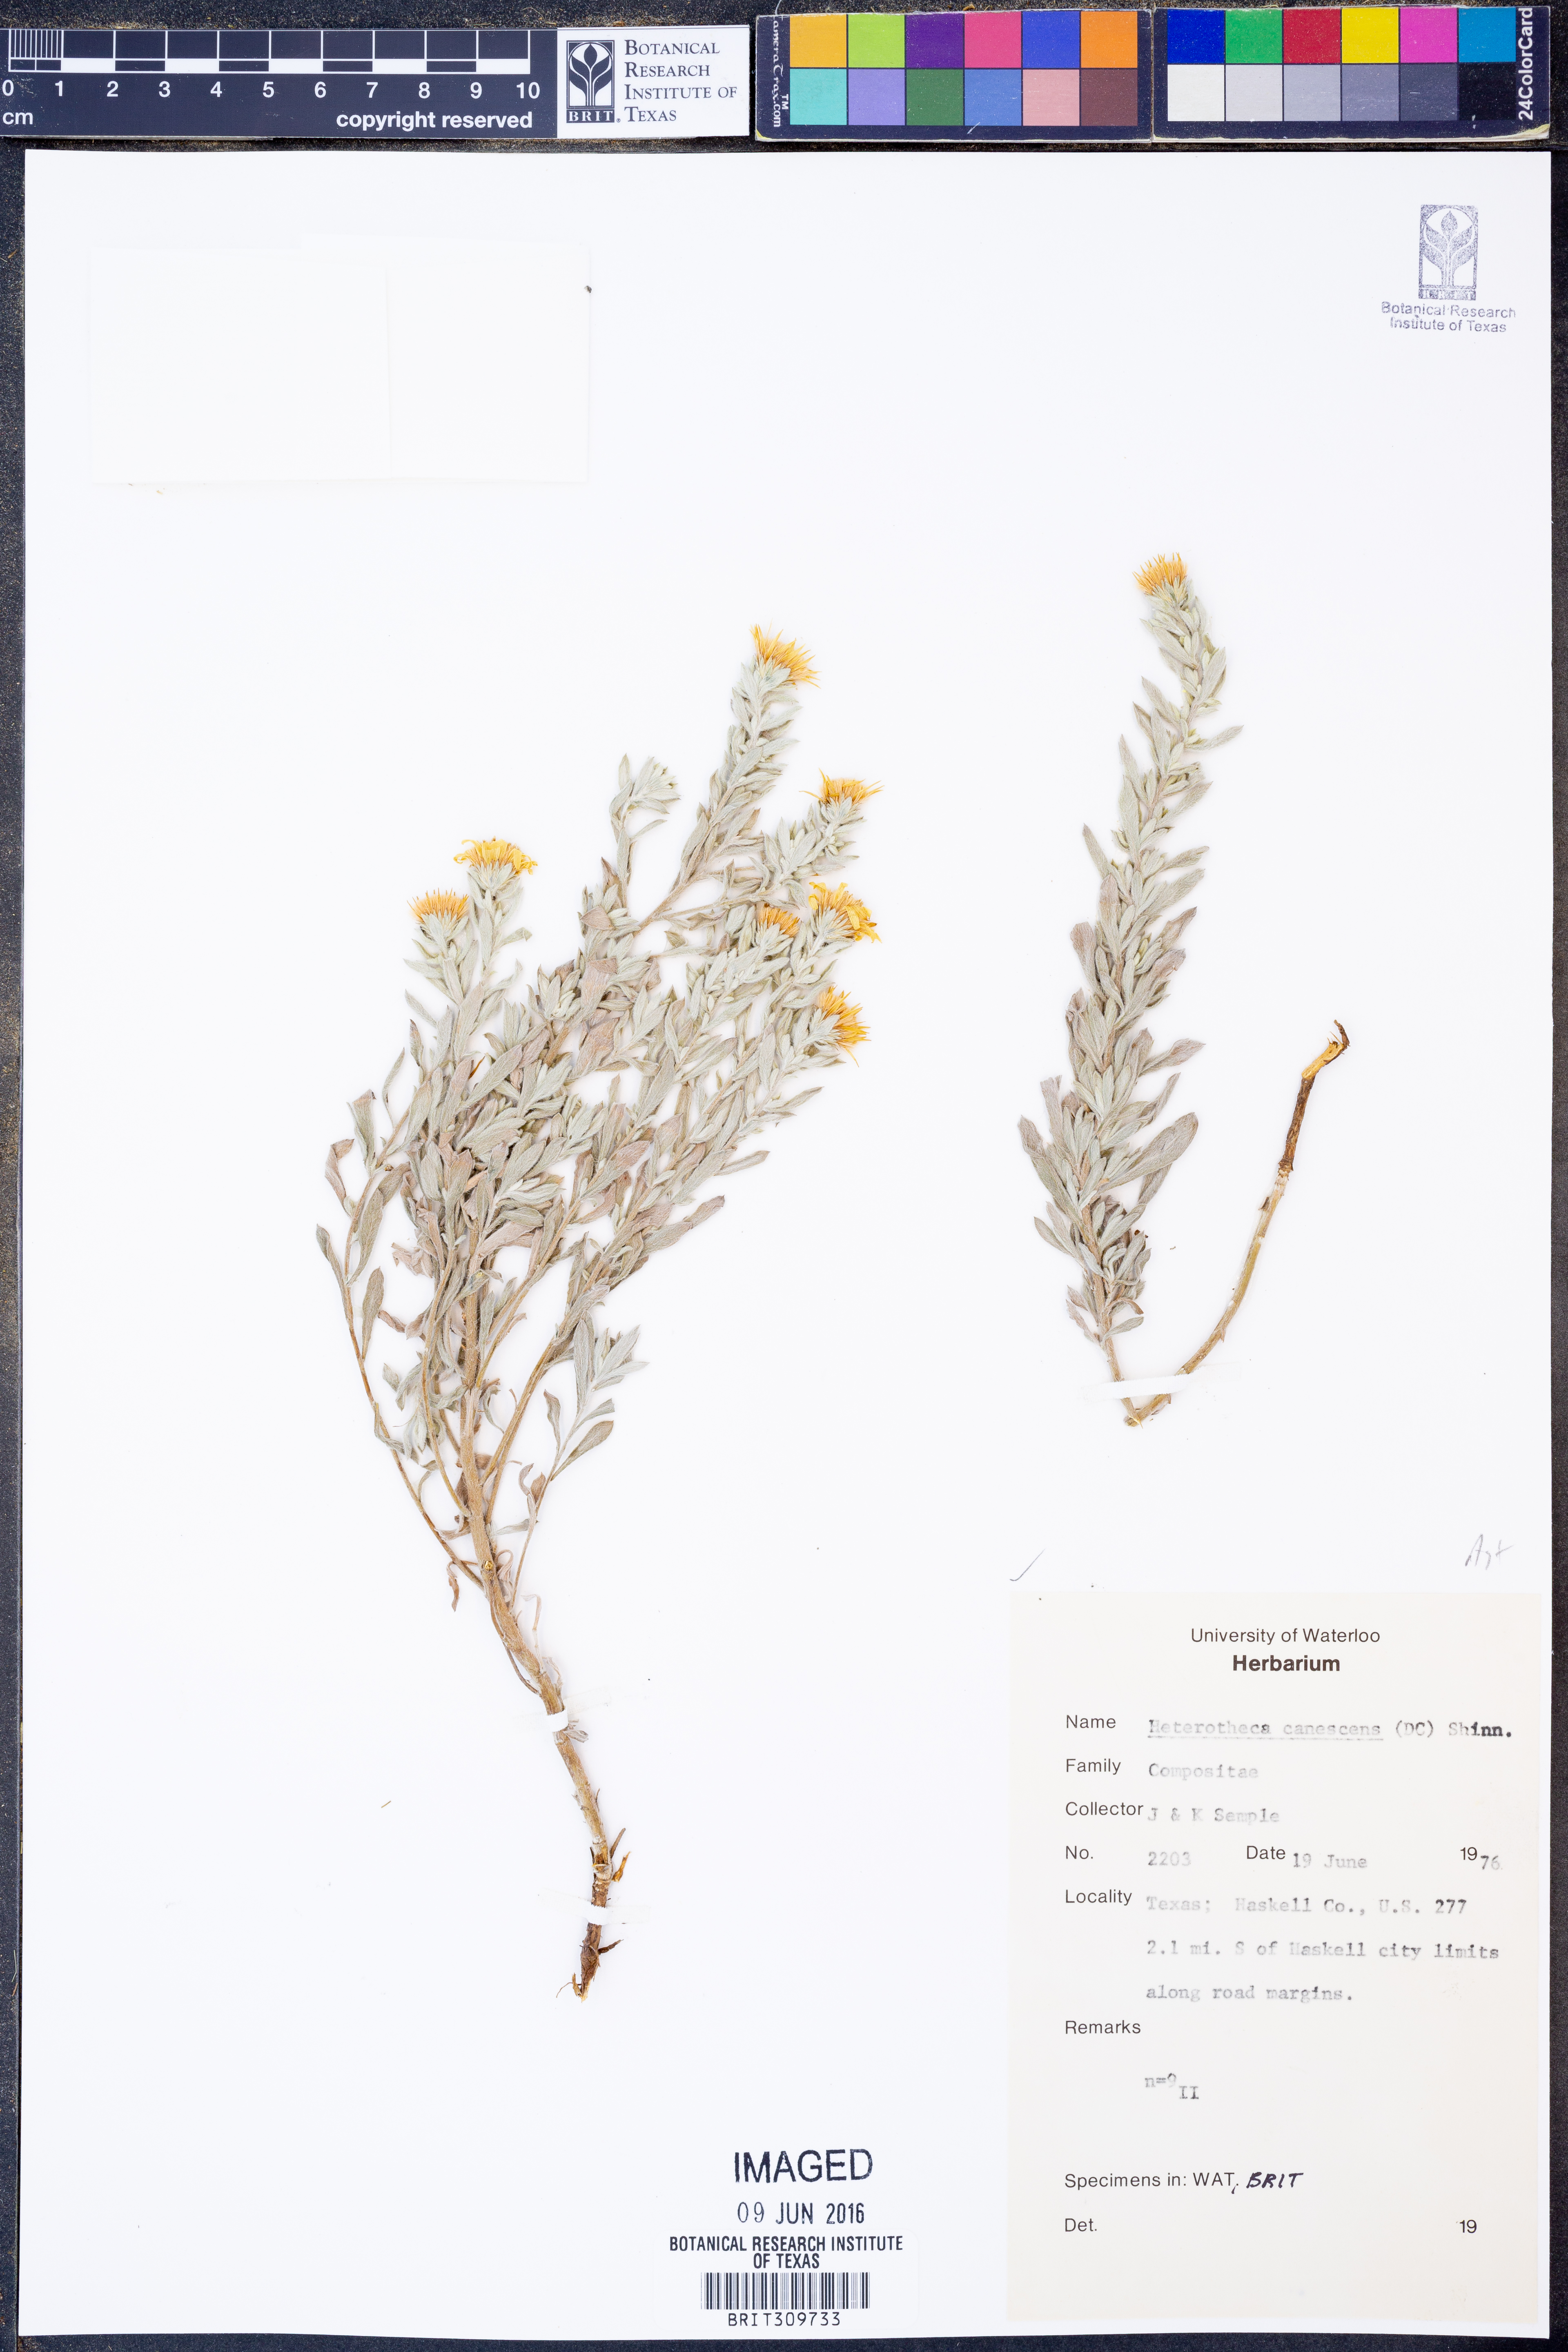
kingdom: Plantae
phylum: Tracheophyta
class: Magnoliopsida
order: Asterales
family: Asteraceae
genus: Heterotheca
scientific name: Heterotheca canescens
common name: Hoary golden-aster
